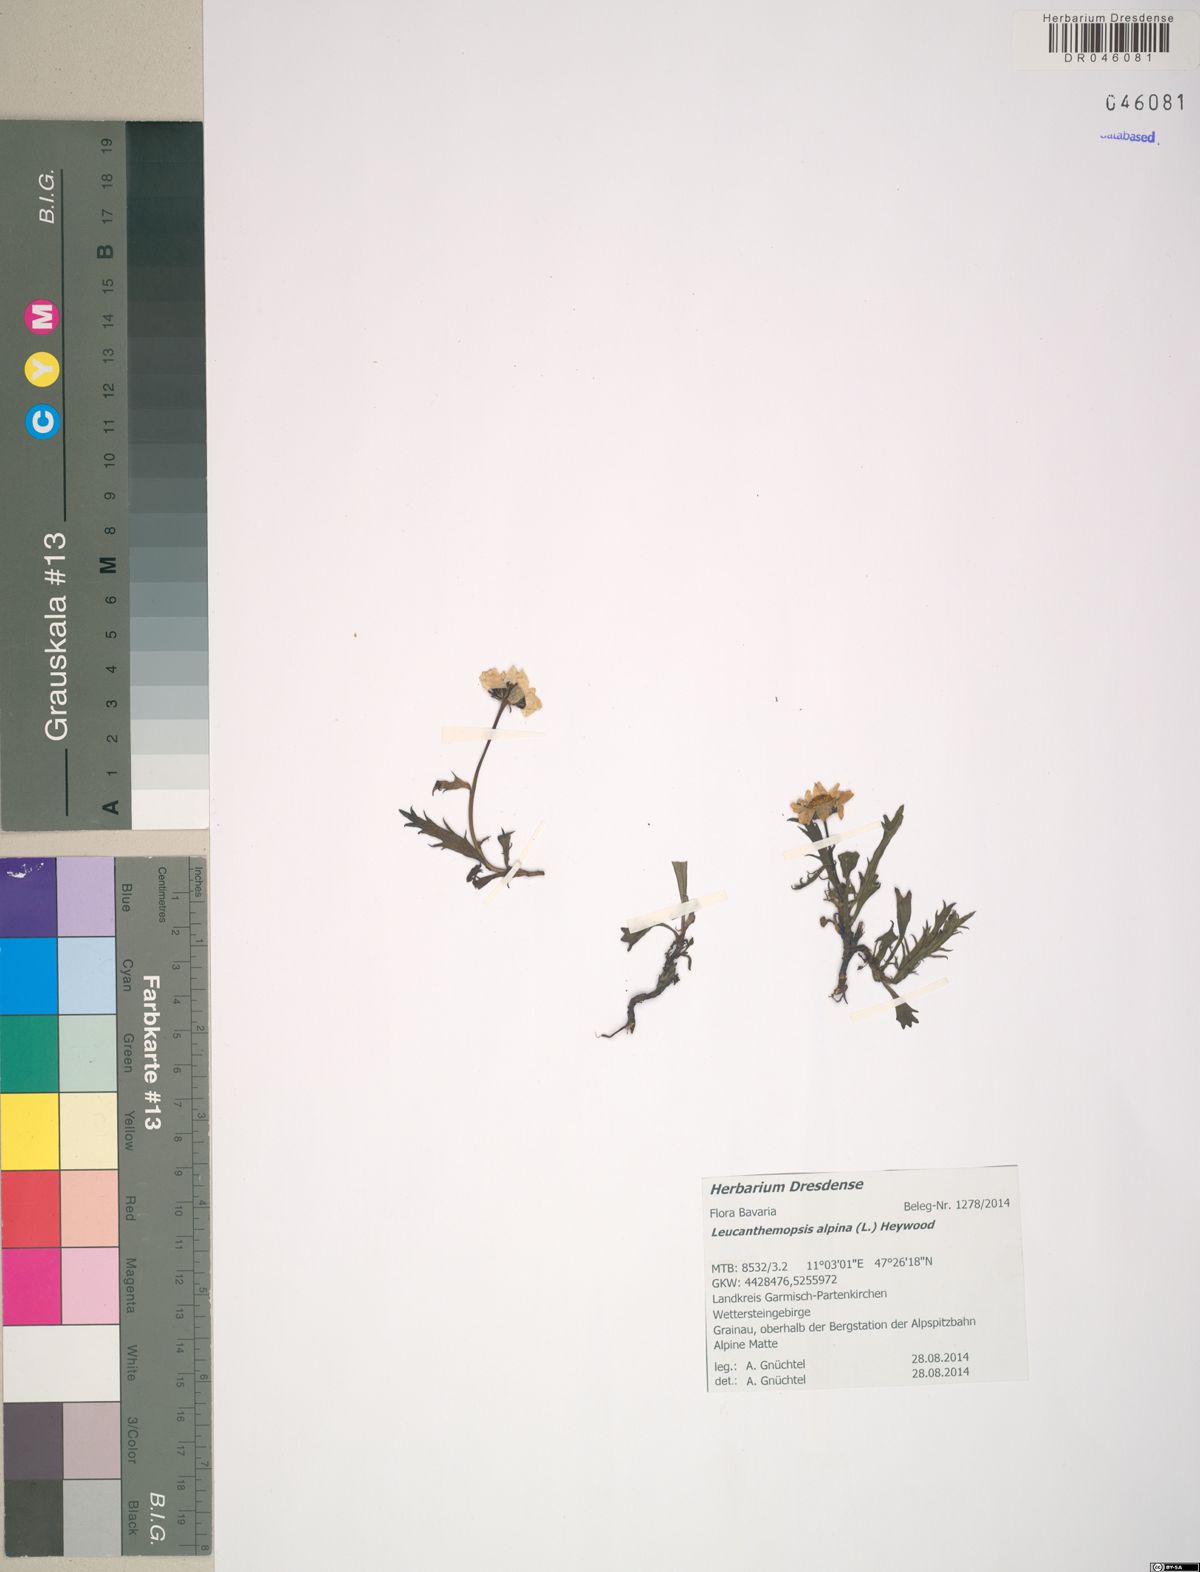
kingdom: Plantae
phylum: Tracheophyta
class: Magnoliopsida
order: Asterales
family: Asteraceae
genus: Leucanthemopsis
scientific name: Leucanthemopsis alpina
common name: Alpine moon daisy
